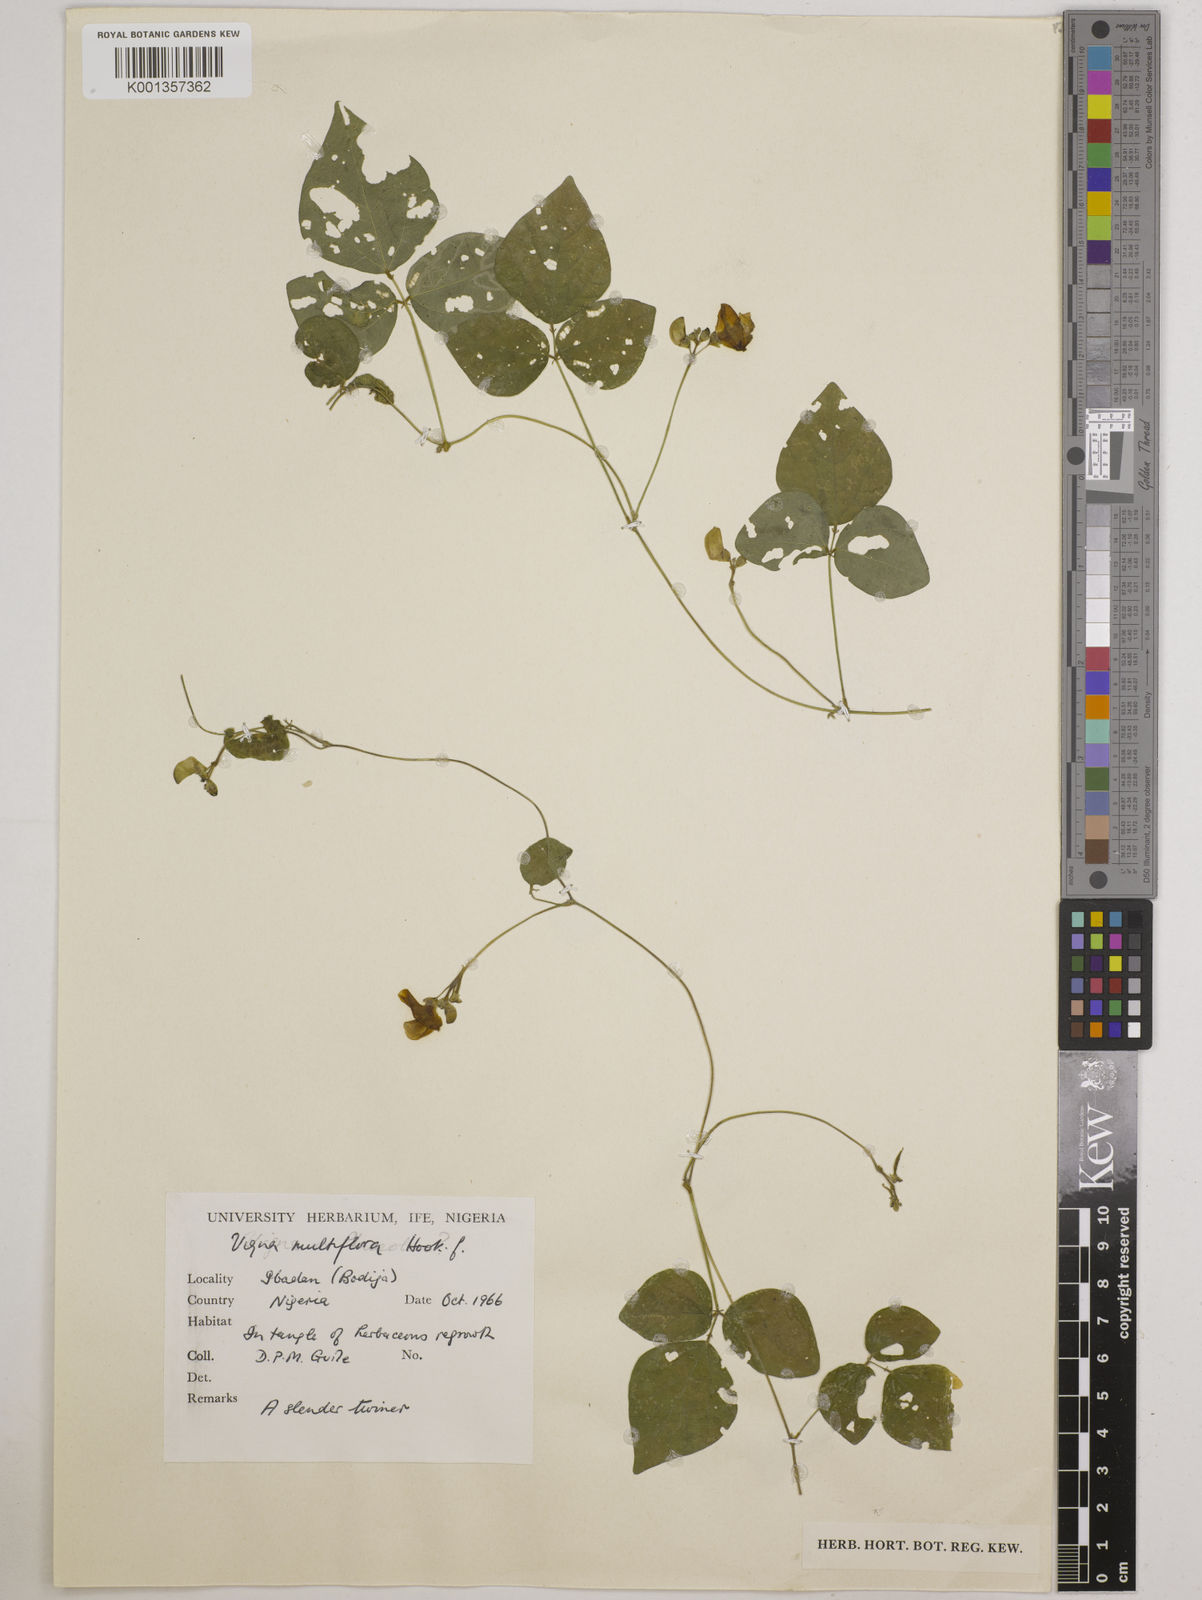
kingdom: Plantae
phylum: Tracheophyta
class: Magnoliopsida
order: Fabales
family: Fabaceae
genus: Vigna
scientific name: Vigna gracilis
